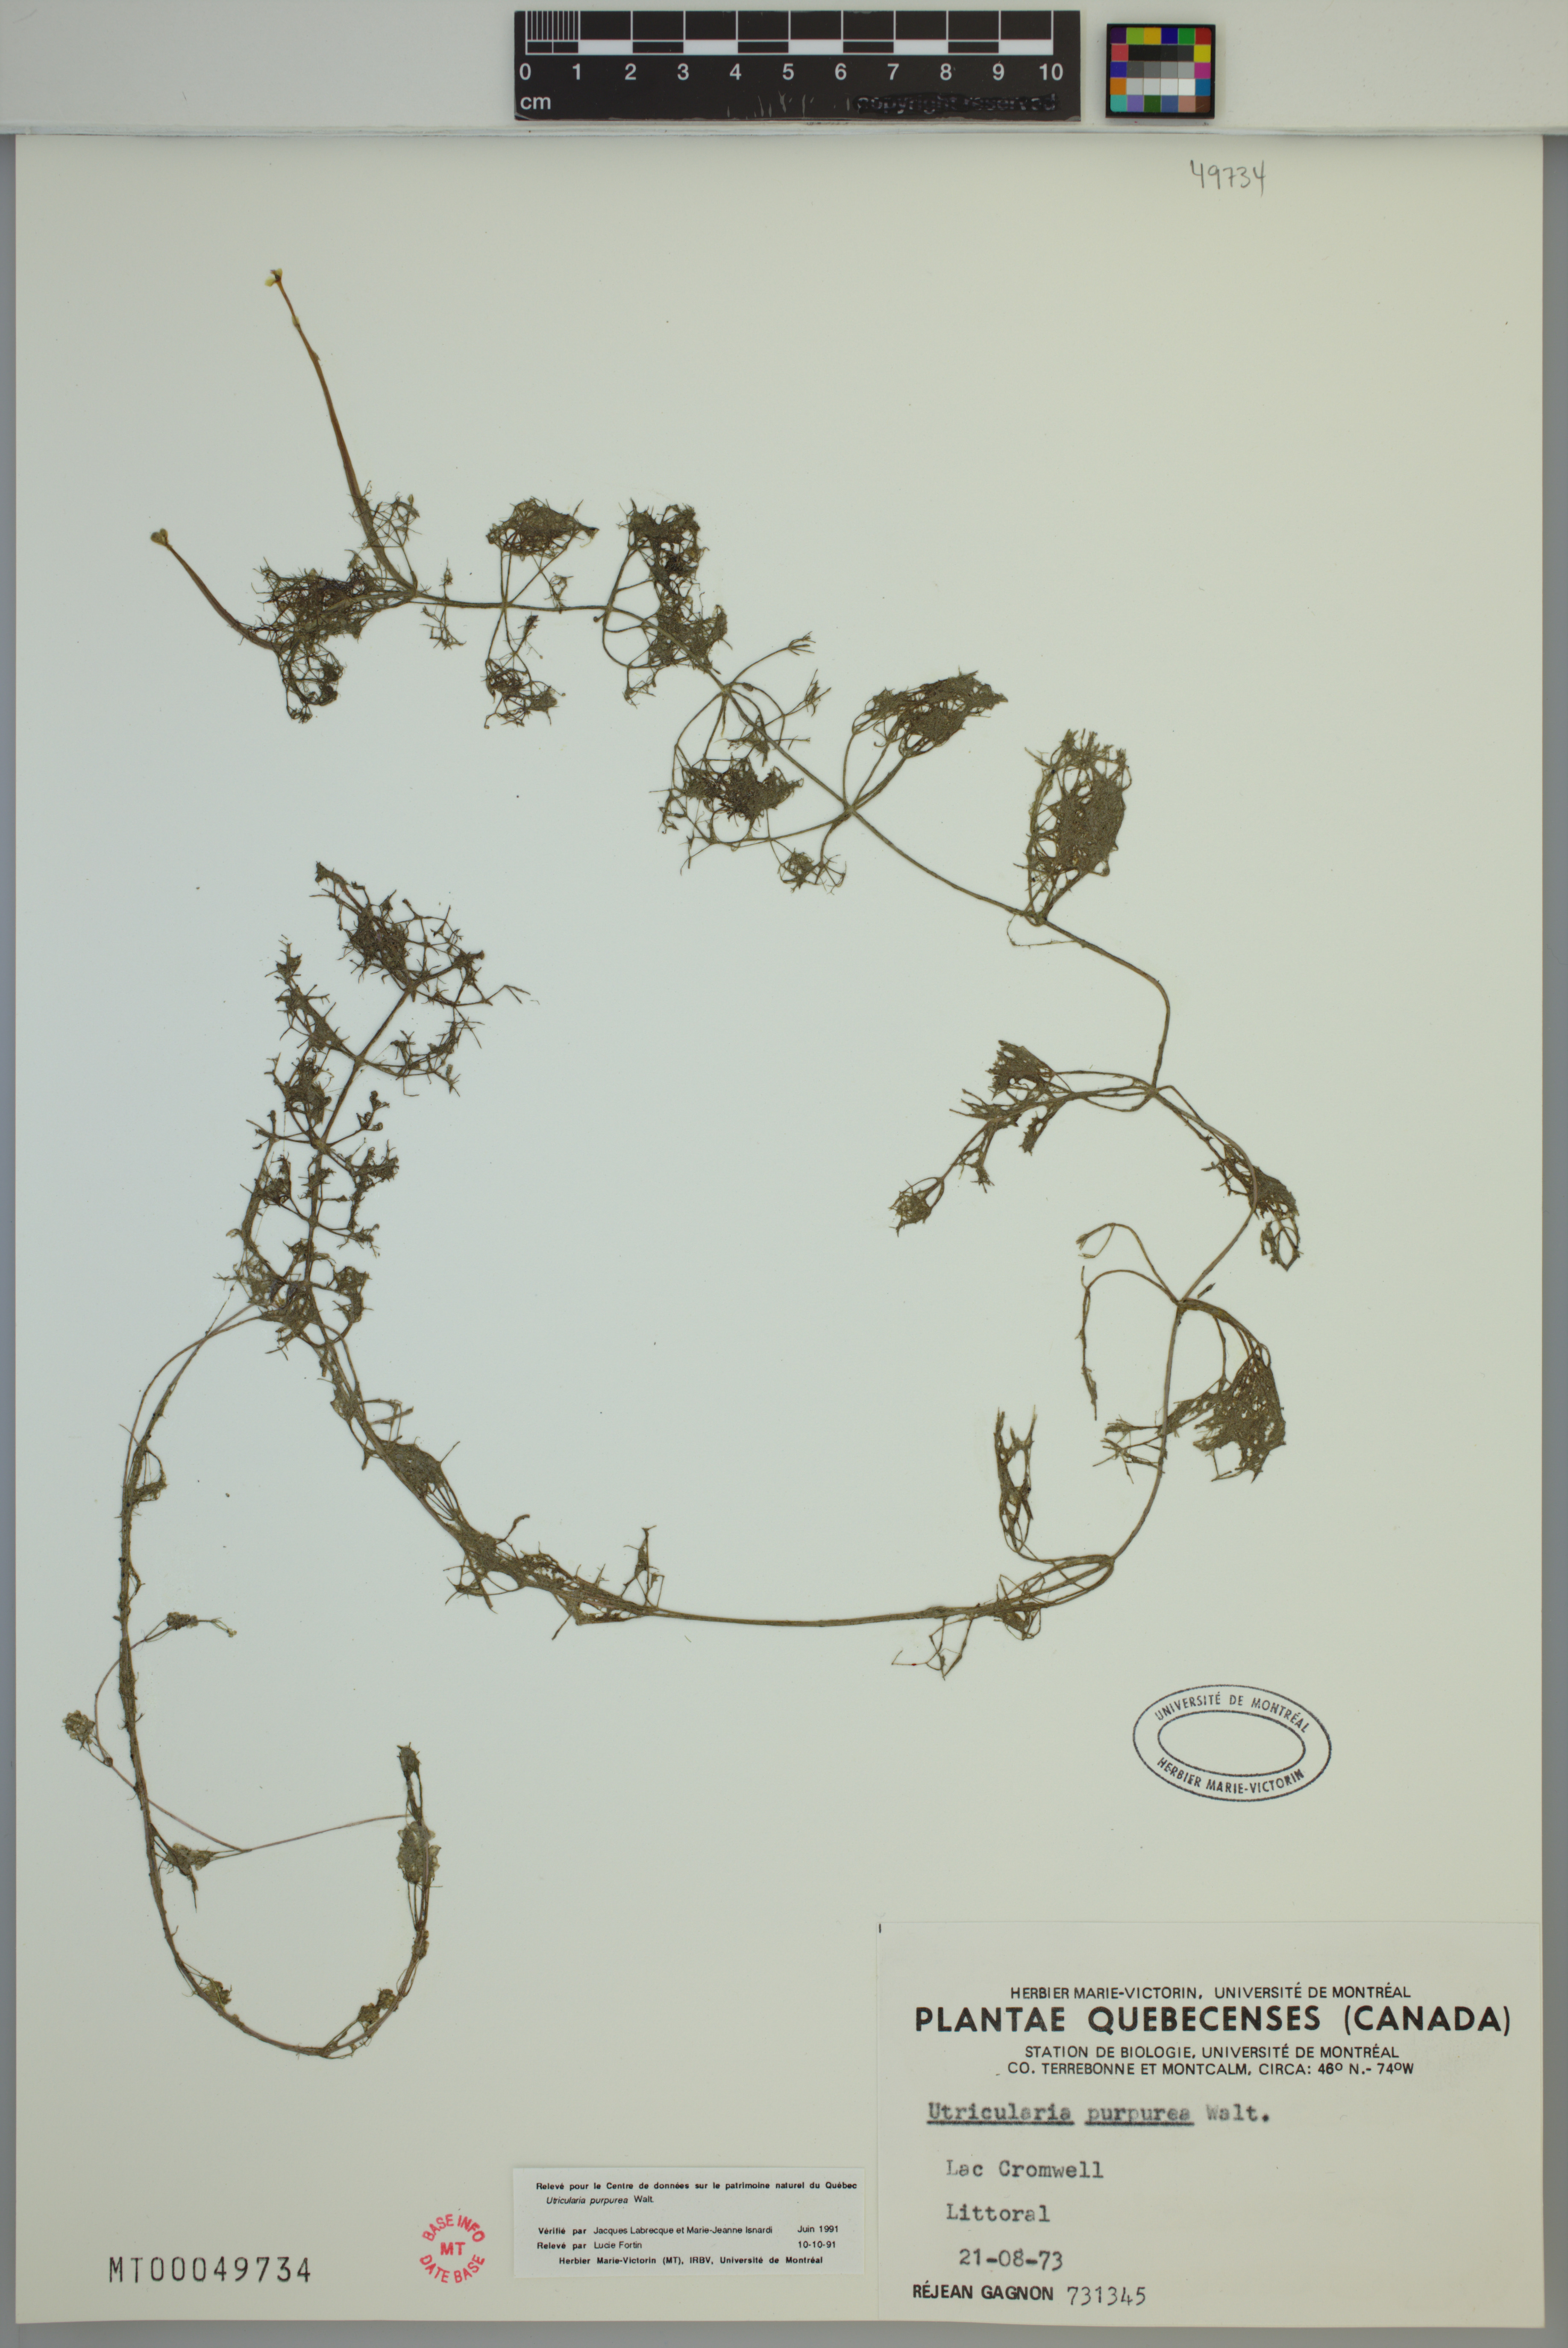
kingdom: Plantae
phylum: Tracheophyta
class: Magnoliopsida
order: Lamiales
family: Lentibulariaceae
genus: Utricularia
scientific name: Utricularia purpurea
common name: Eastern purple bladderwort
